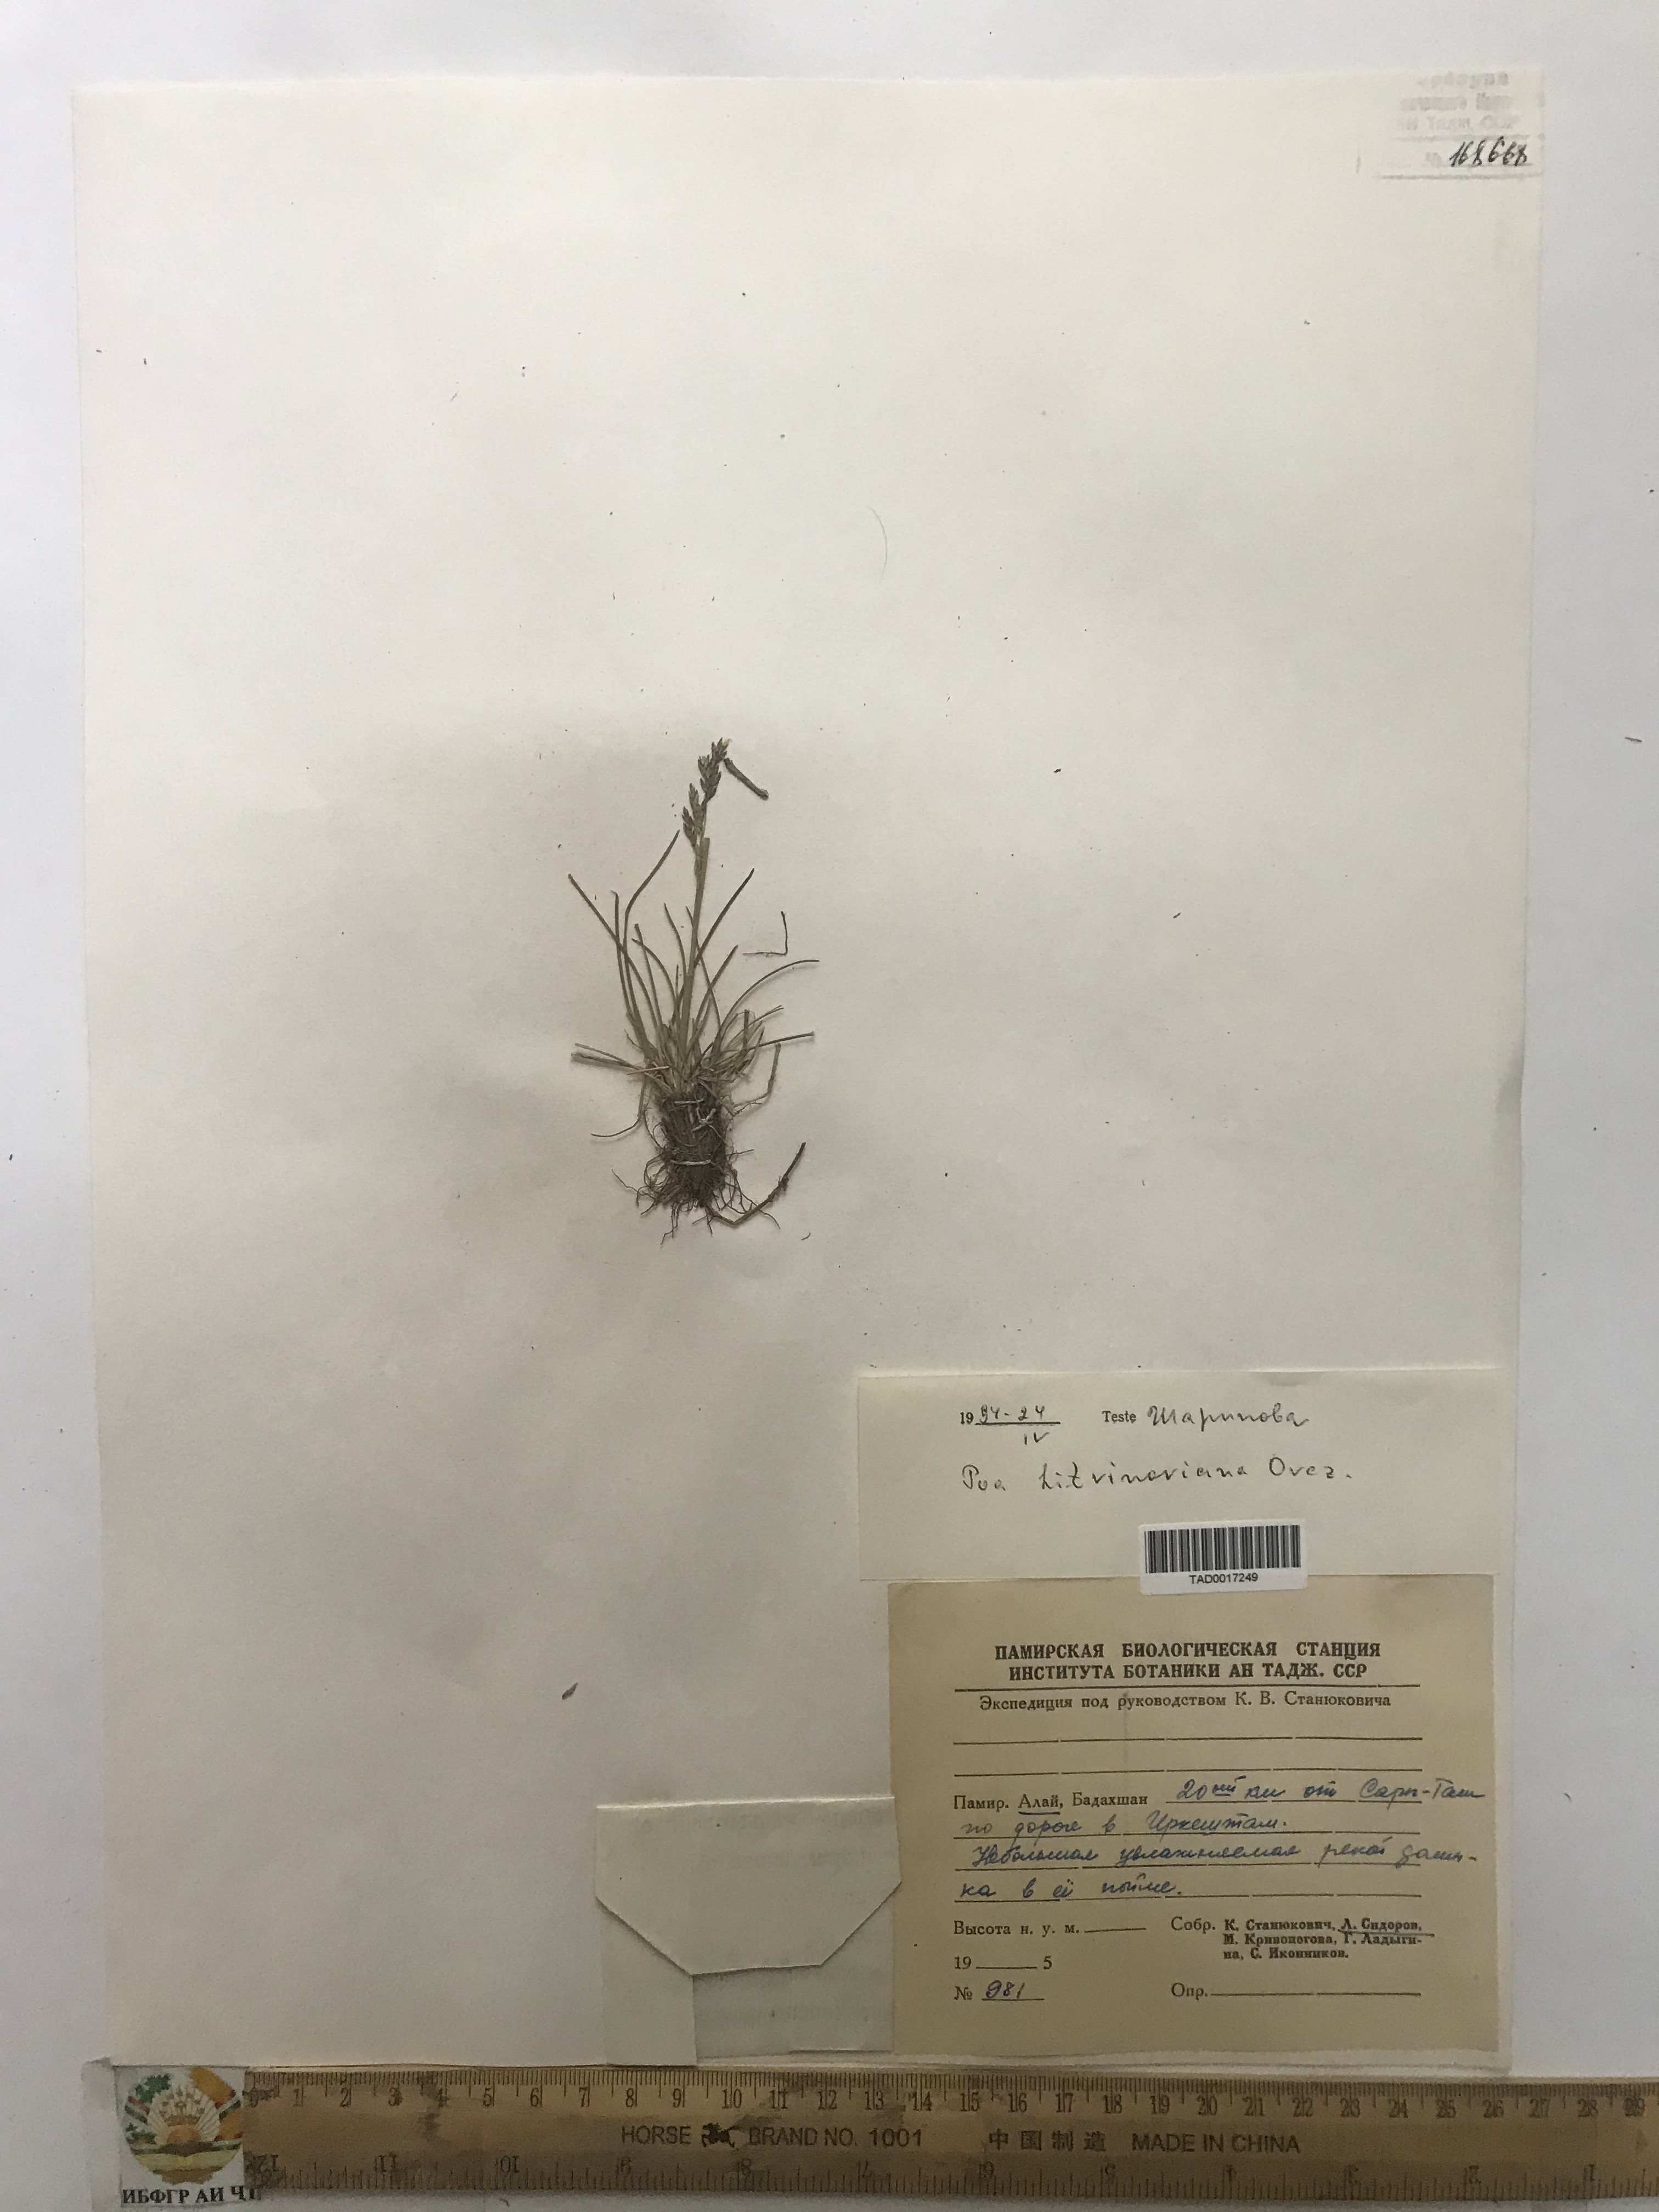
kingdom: Plantae
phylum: Tracheophyta
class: Liliopsida
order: Poales
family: Poaceae
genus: Poa
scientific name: Poa glauca
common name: Glaucous bluegrass
